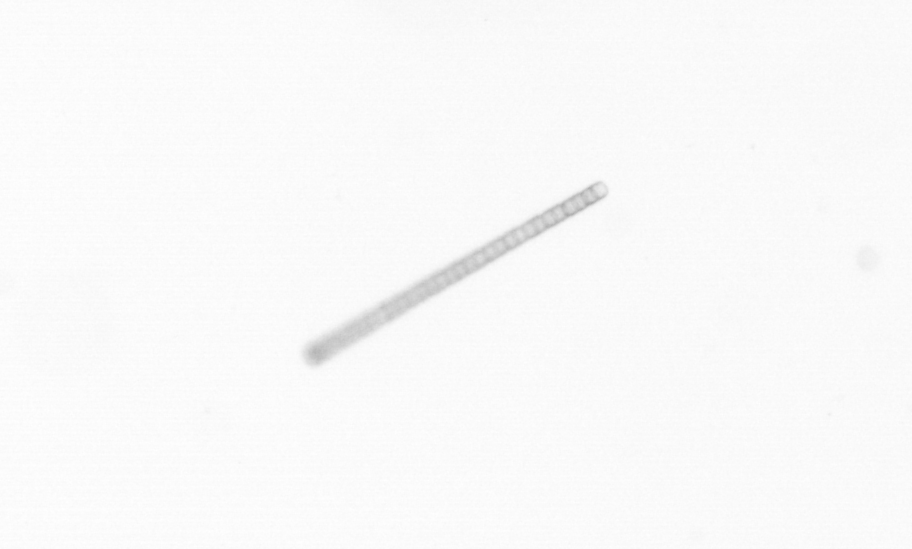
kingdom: Chromista
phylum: Ochrophyta
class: Bacillariophyceae
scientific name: Bacillariophyceae
